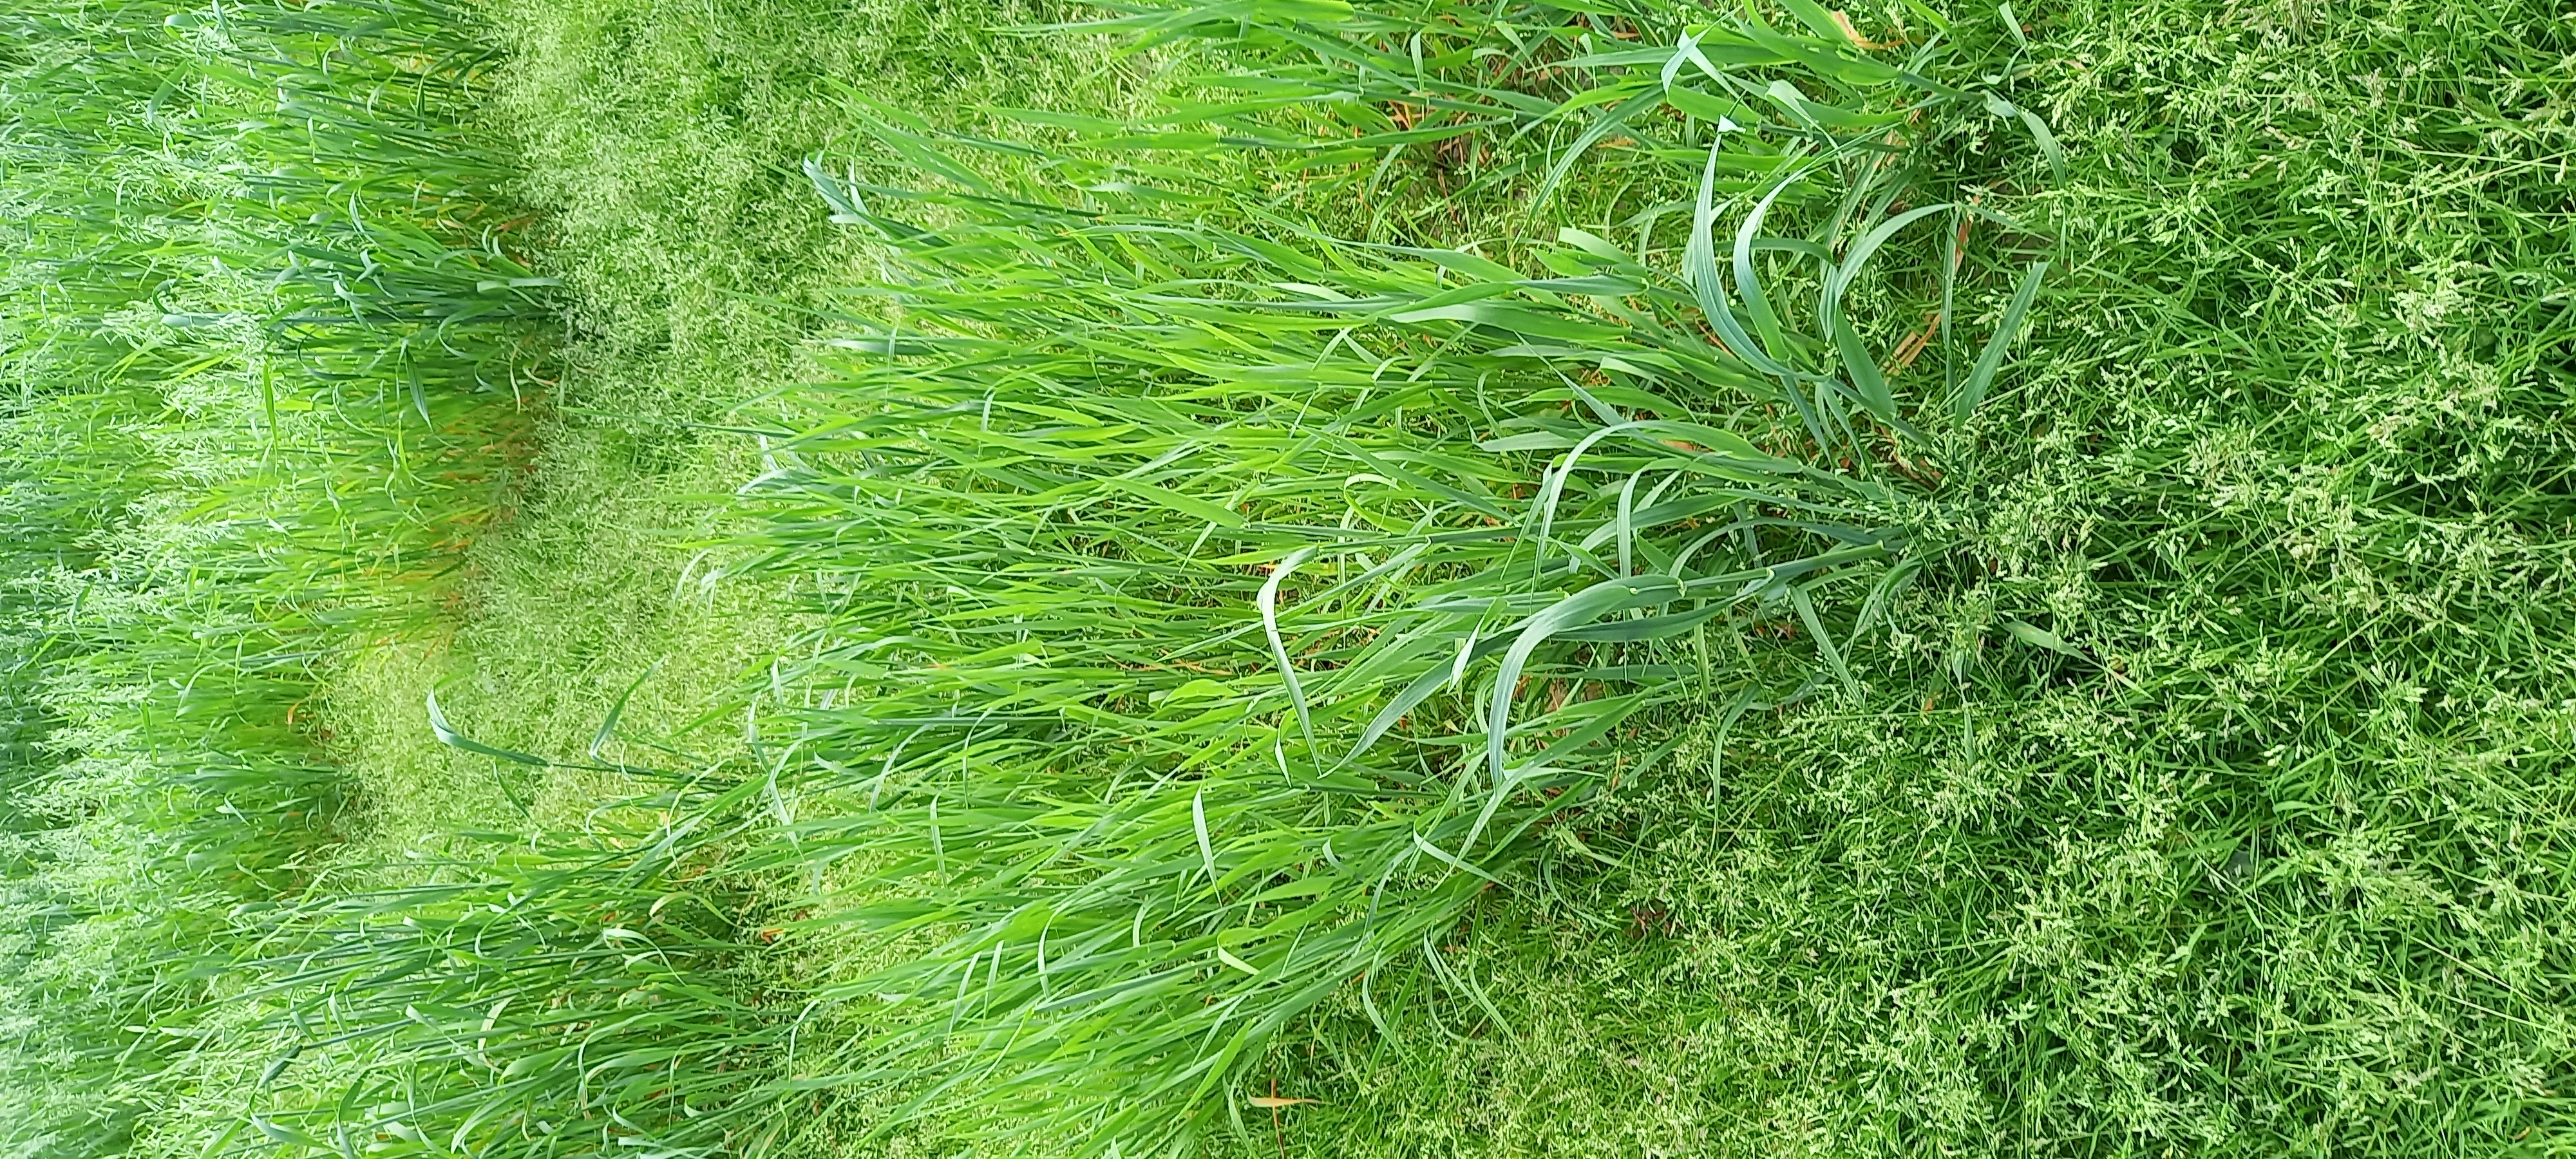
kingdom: Plantae
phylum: Tracheophyta
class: Liliopsida
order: Poales
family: Poaceae
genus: Avena
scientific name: Avena sativa
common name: Oat
